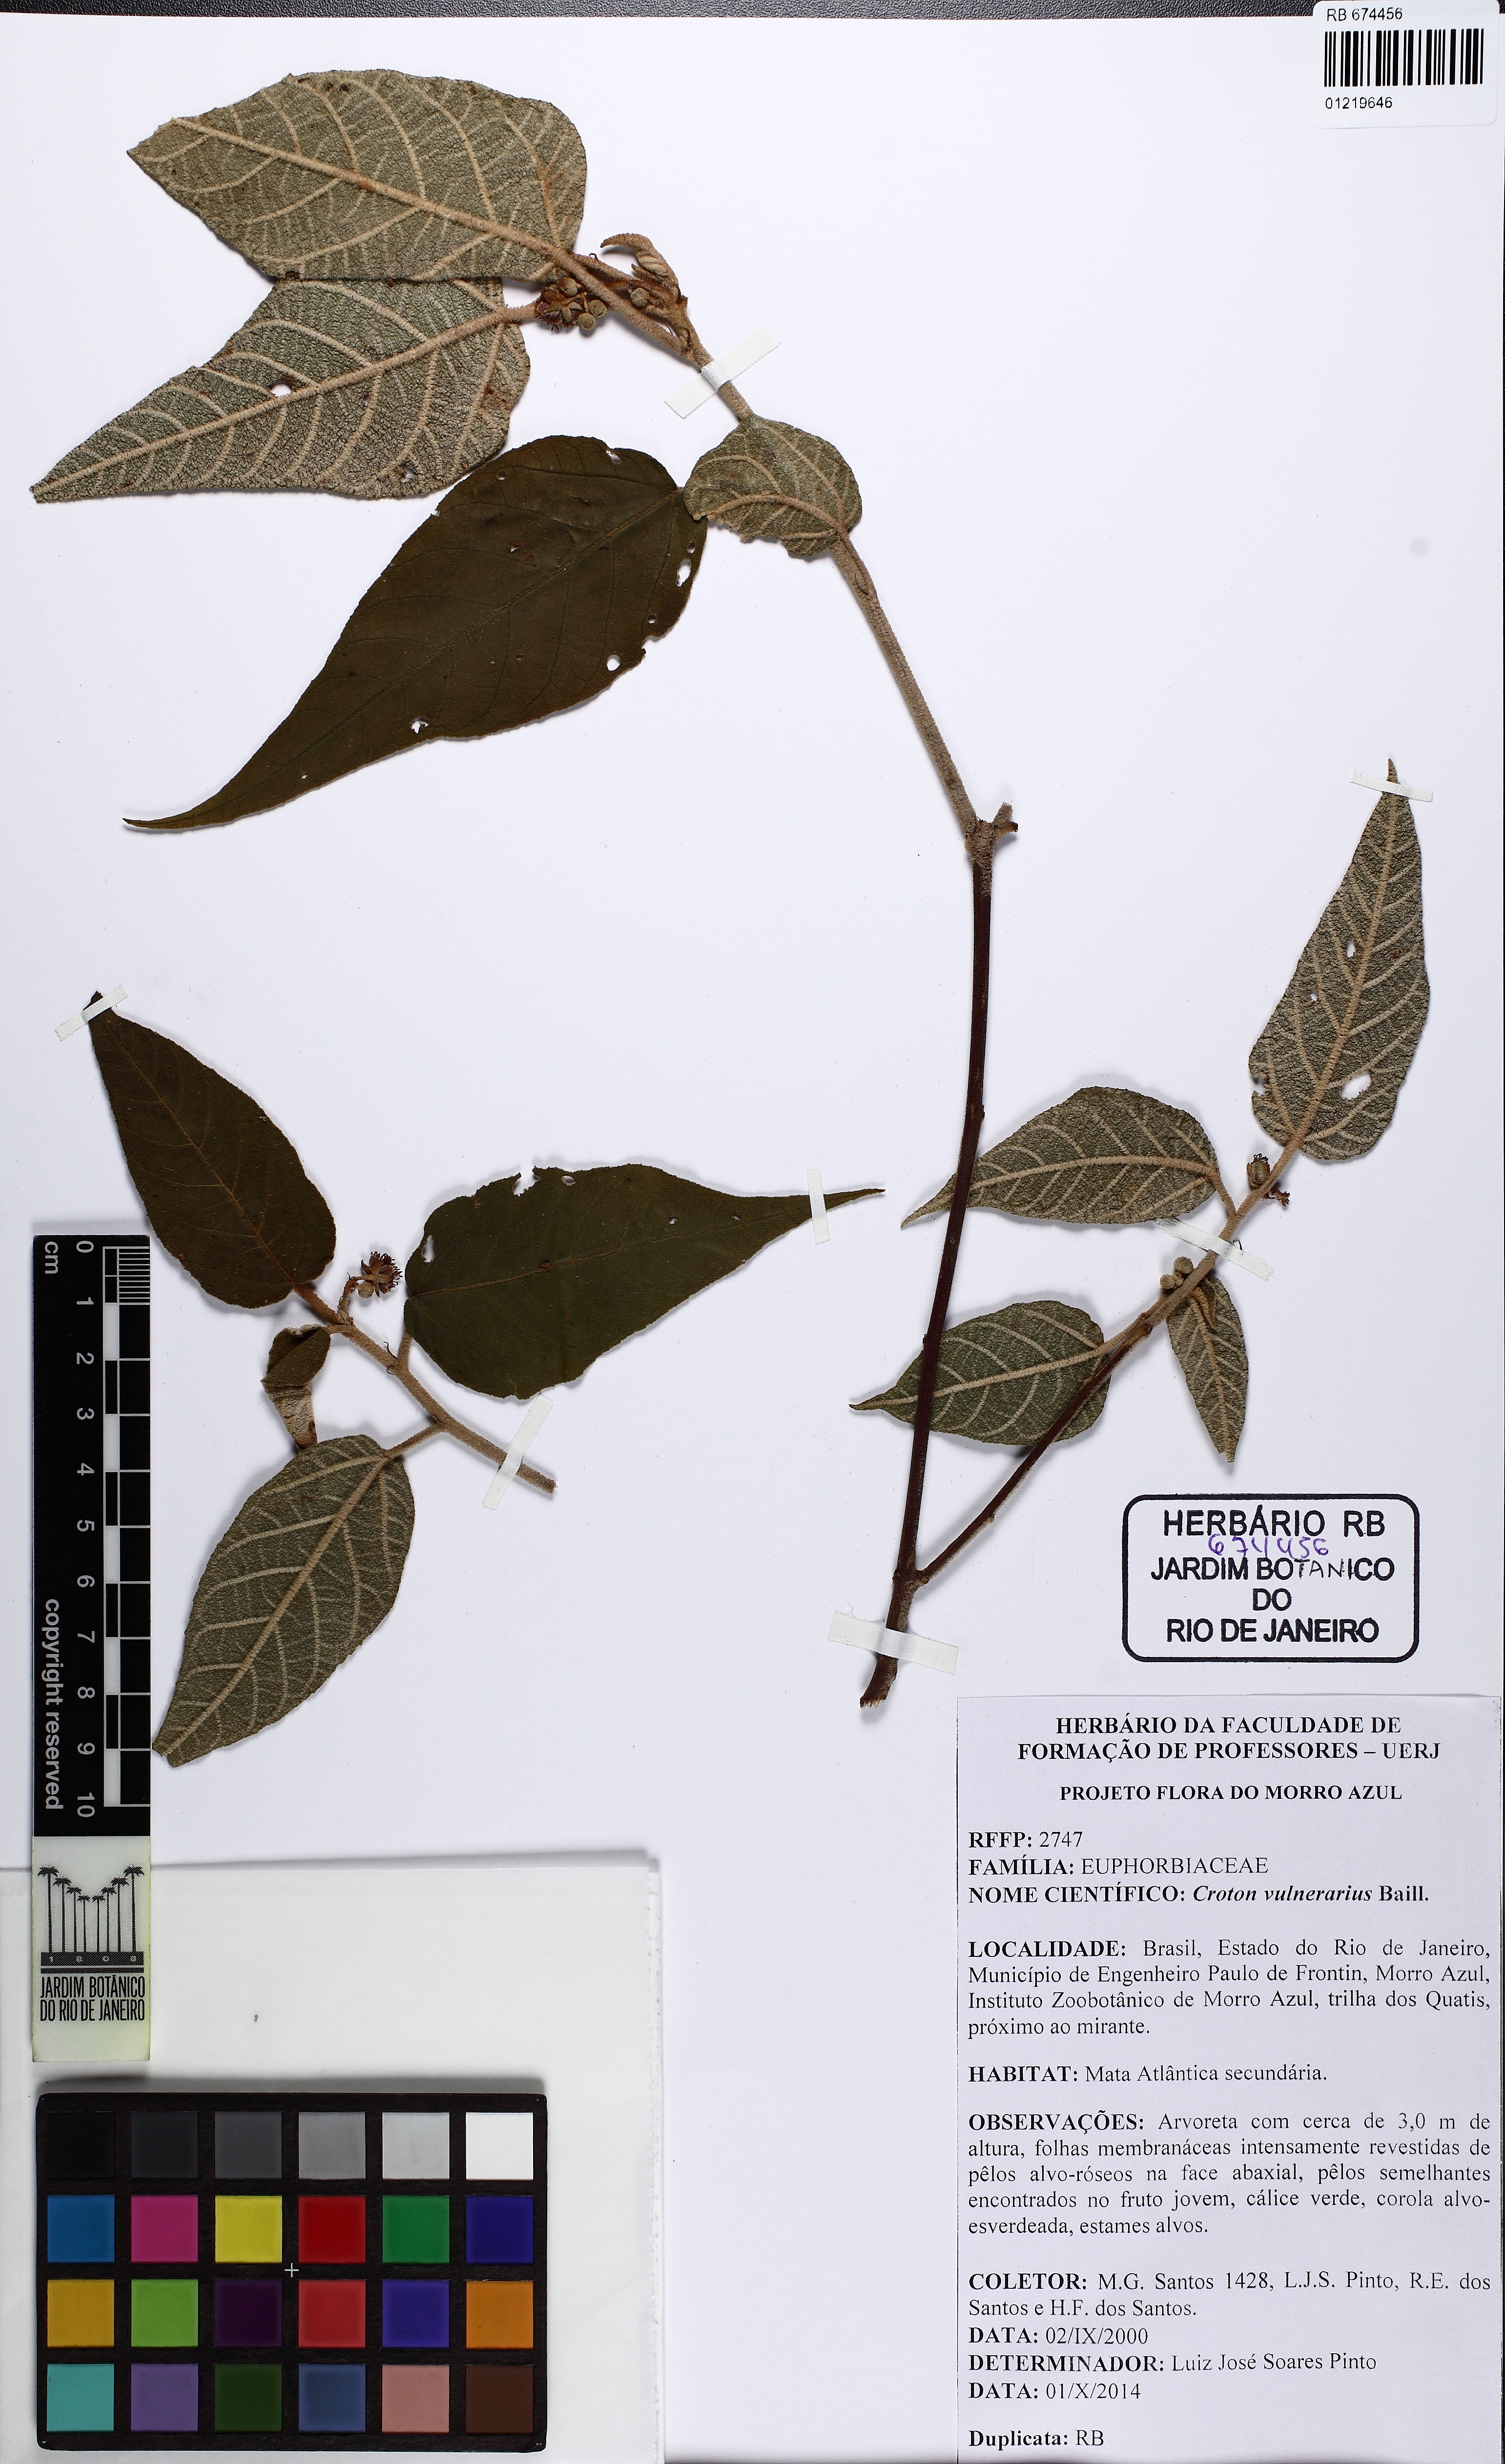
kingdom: Plantae
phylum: Tracheophyta
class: Magnoliopsida
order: Malpighiales
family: Euphorbiaceae
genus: Croton
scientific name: Croton vulnerarius
